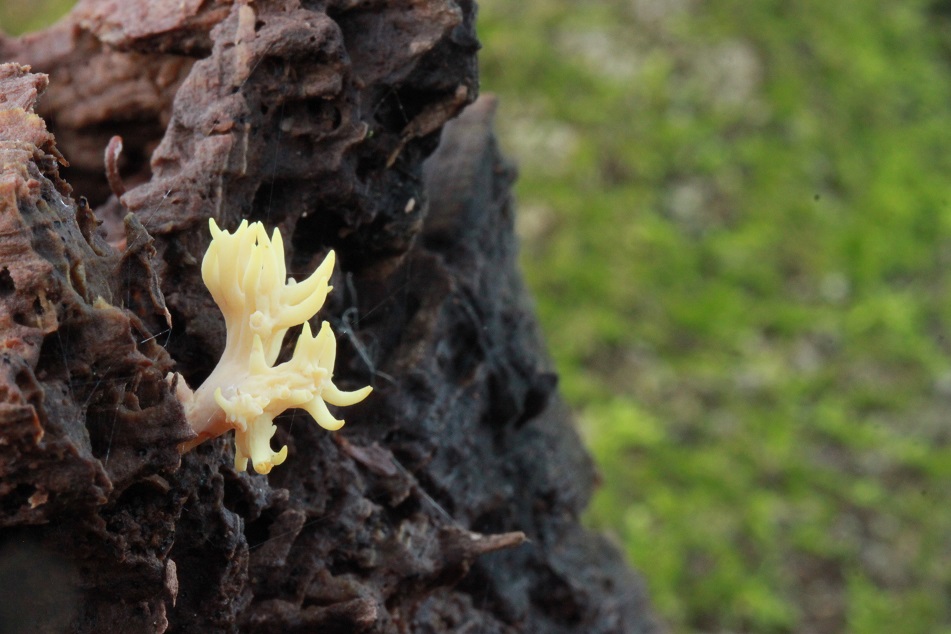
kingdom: Fungi
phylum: Basidiomycota
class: Agaricomycetes
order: Gomphales
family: Gomphaceae
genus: Ramaria
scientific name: Ramaria stricta
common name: rank koralsvamp
